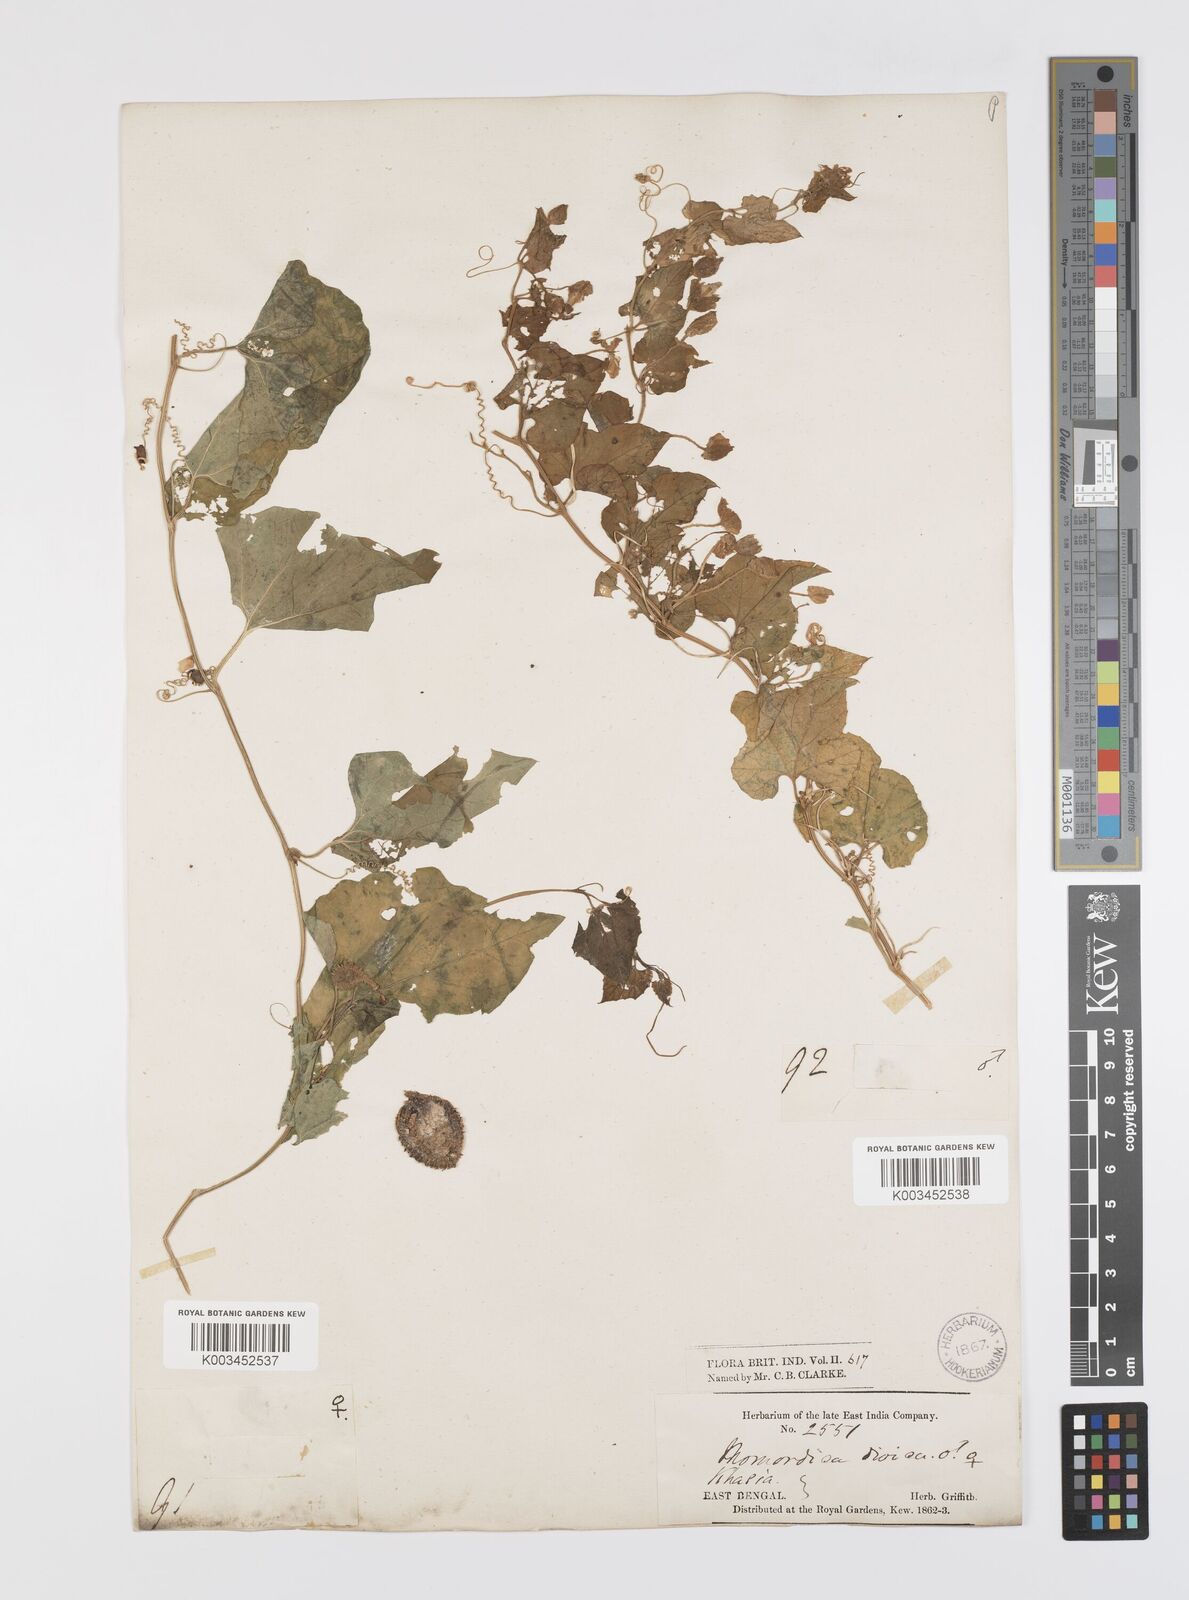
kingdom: Plantae
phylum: Tracheophyta
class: Magnoliopsida
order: Cucurbitales
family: Cucurbitaceae
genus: Momordica
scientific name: Momordica dioica
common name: Spine gourd
